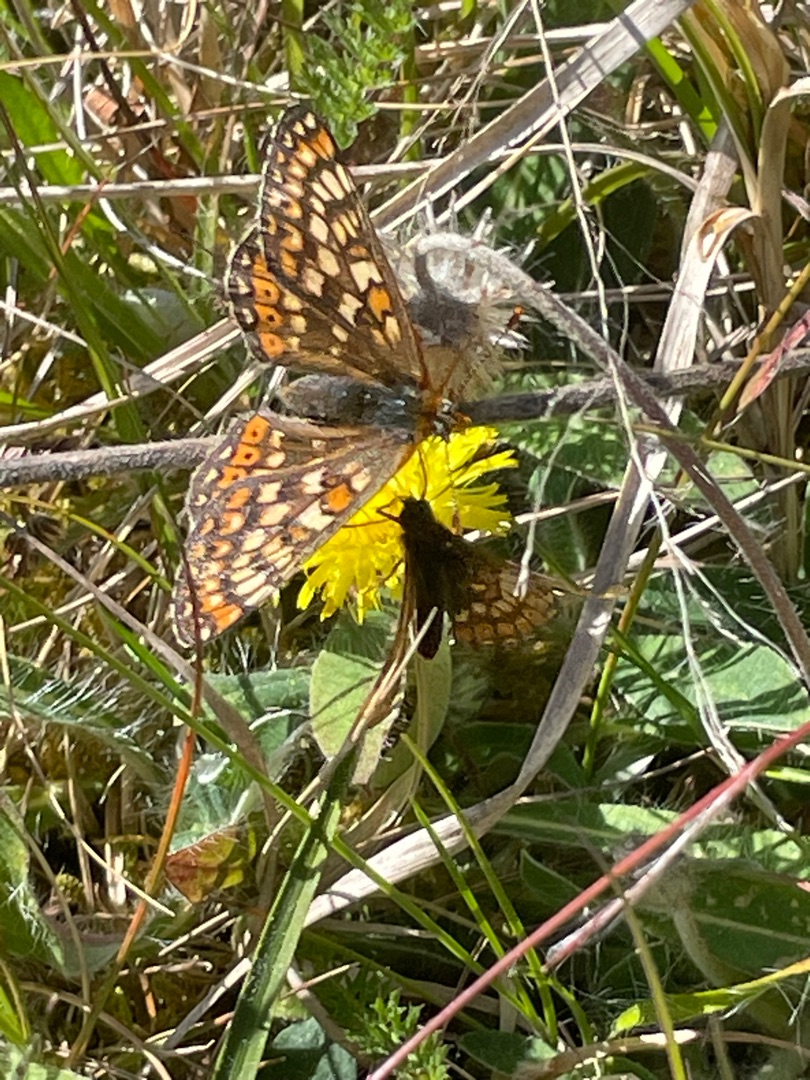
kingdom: Animalia
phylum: Arthropoda
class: Insecta
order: Lepidoptera
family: Nymphalidae
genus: Euphydryas
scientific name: Euphydryas aurinia
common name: Hedepletvinge
